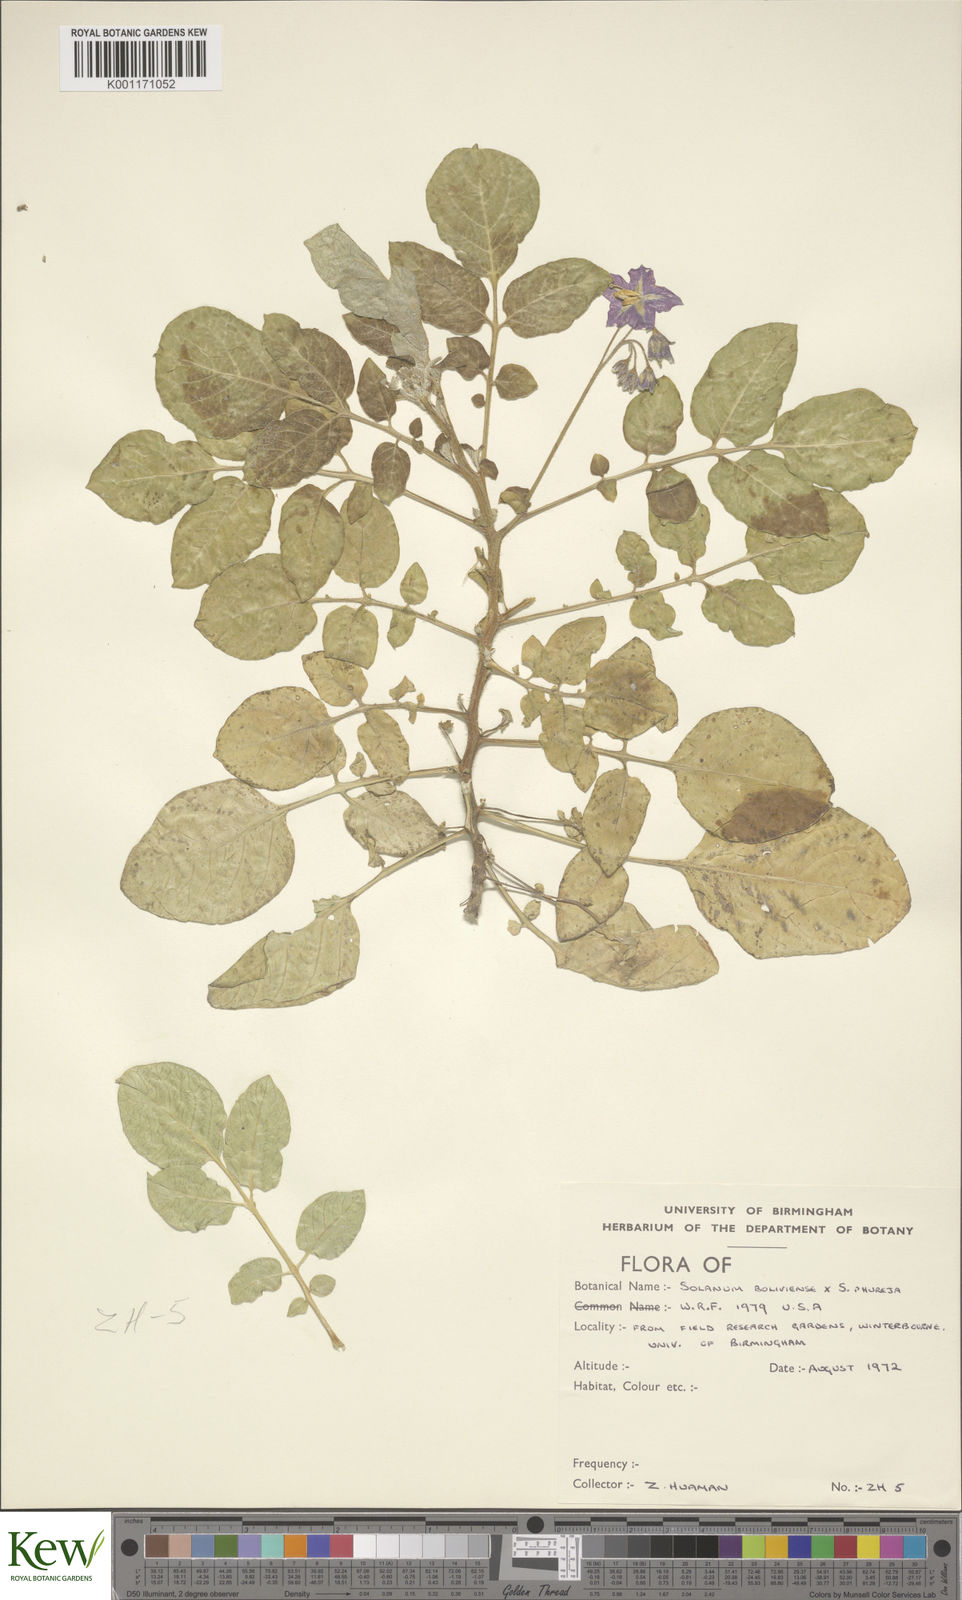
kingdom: Plantae
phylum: Tracheophyta
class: Magnoliopsida
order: Solanales
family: Solanaceae
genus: Solanum
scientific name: Solanum boliviense
